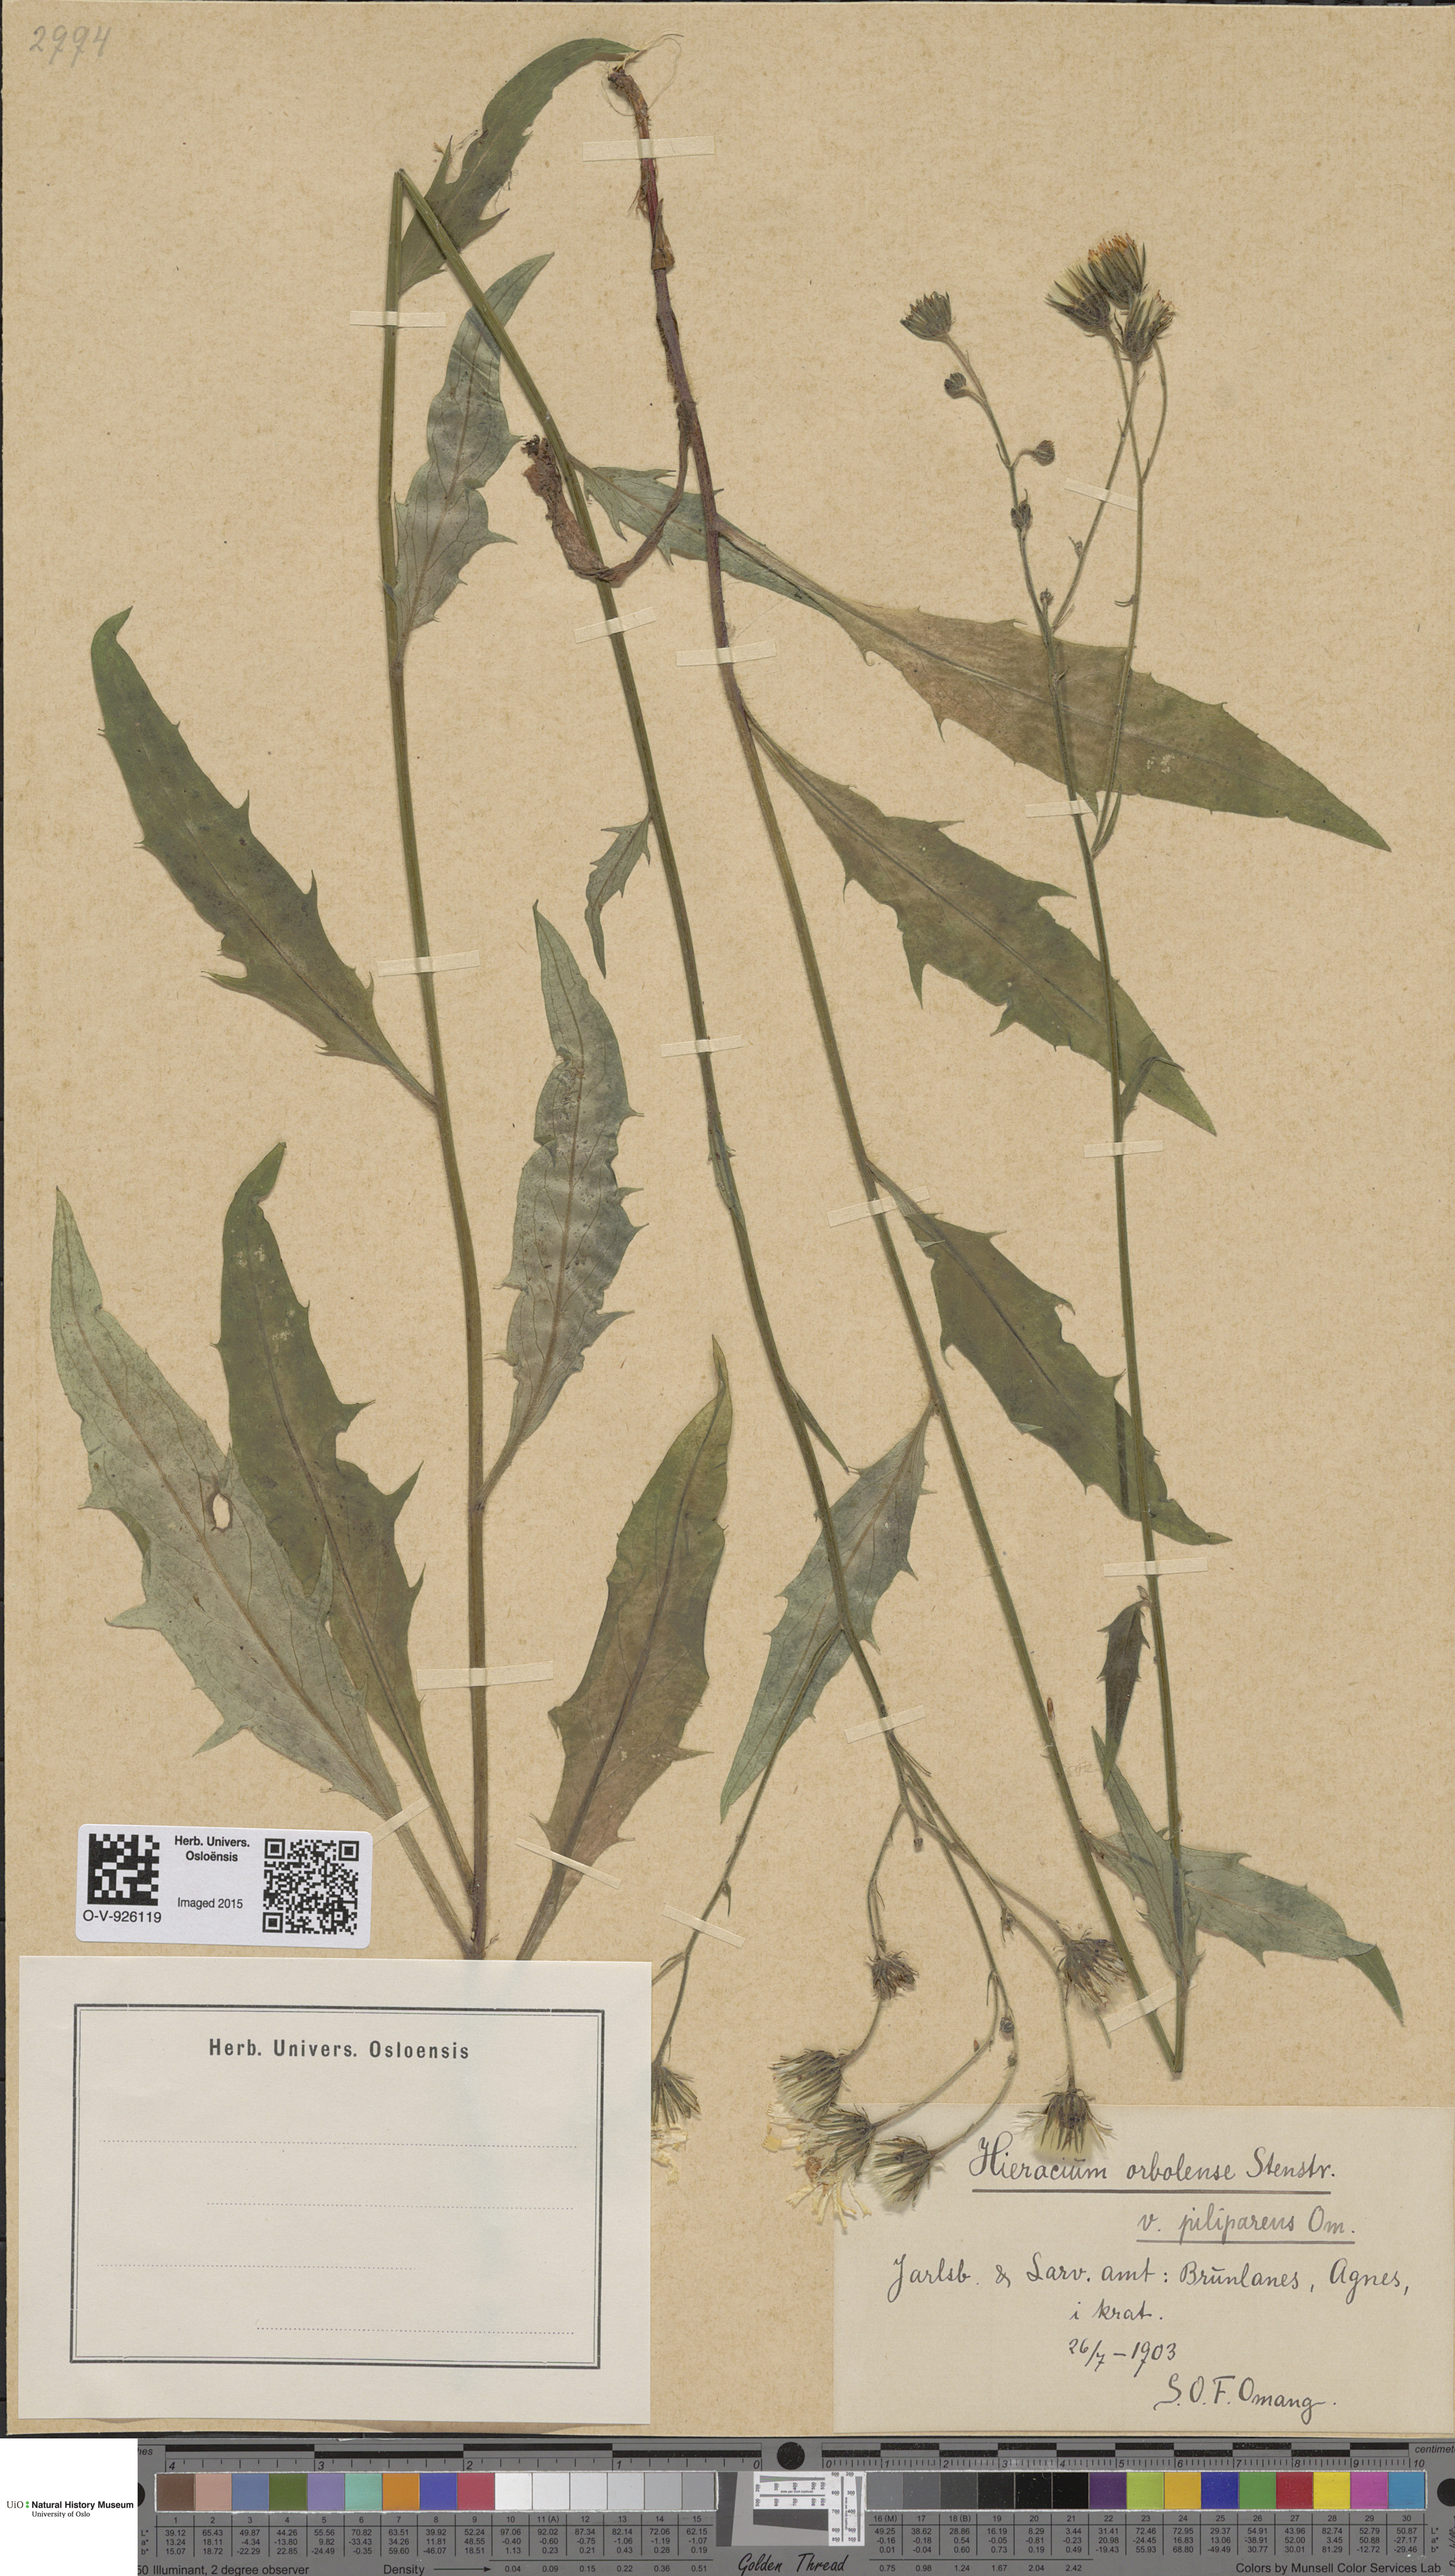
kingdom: Plantae
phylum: Tracheophyta
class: Magnoliopsida
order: Asterales
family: Asteraceae
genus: Hieracium
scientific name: Hieracium orbolense
